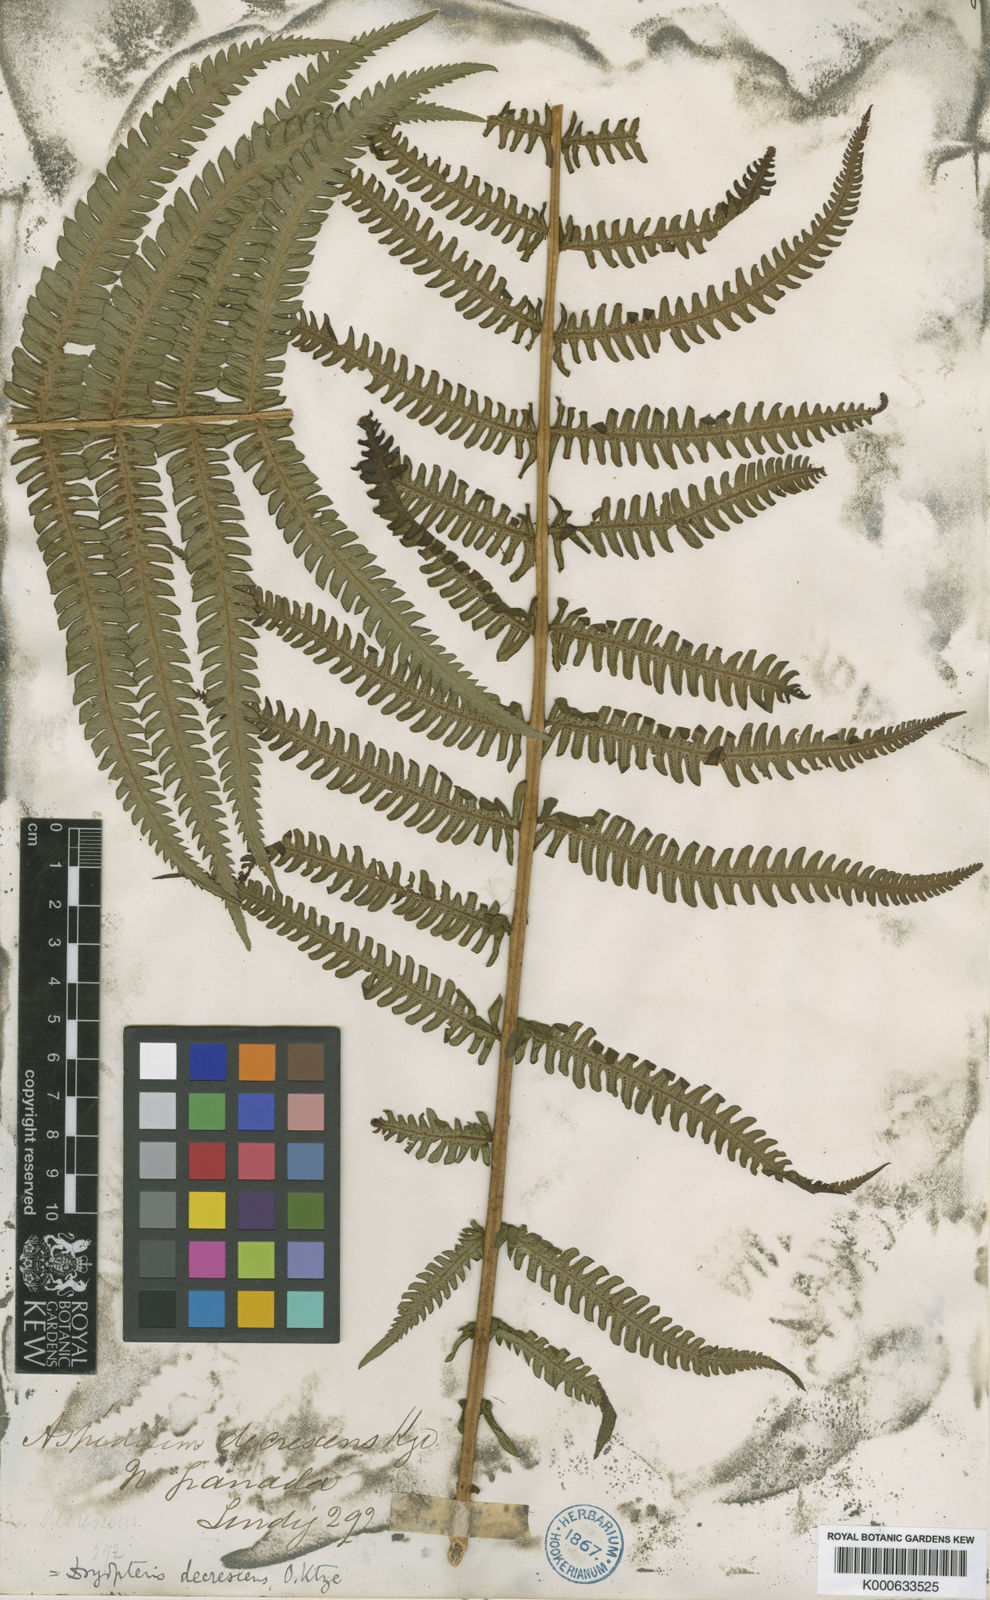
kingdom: Plantae
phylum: Tracheophyta
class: Polypodiopsida
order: Polypodiales
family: Thelypteridaceae
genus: Amauropelta
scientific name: Amauropelta
